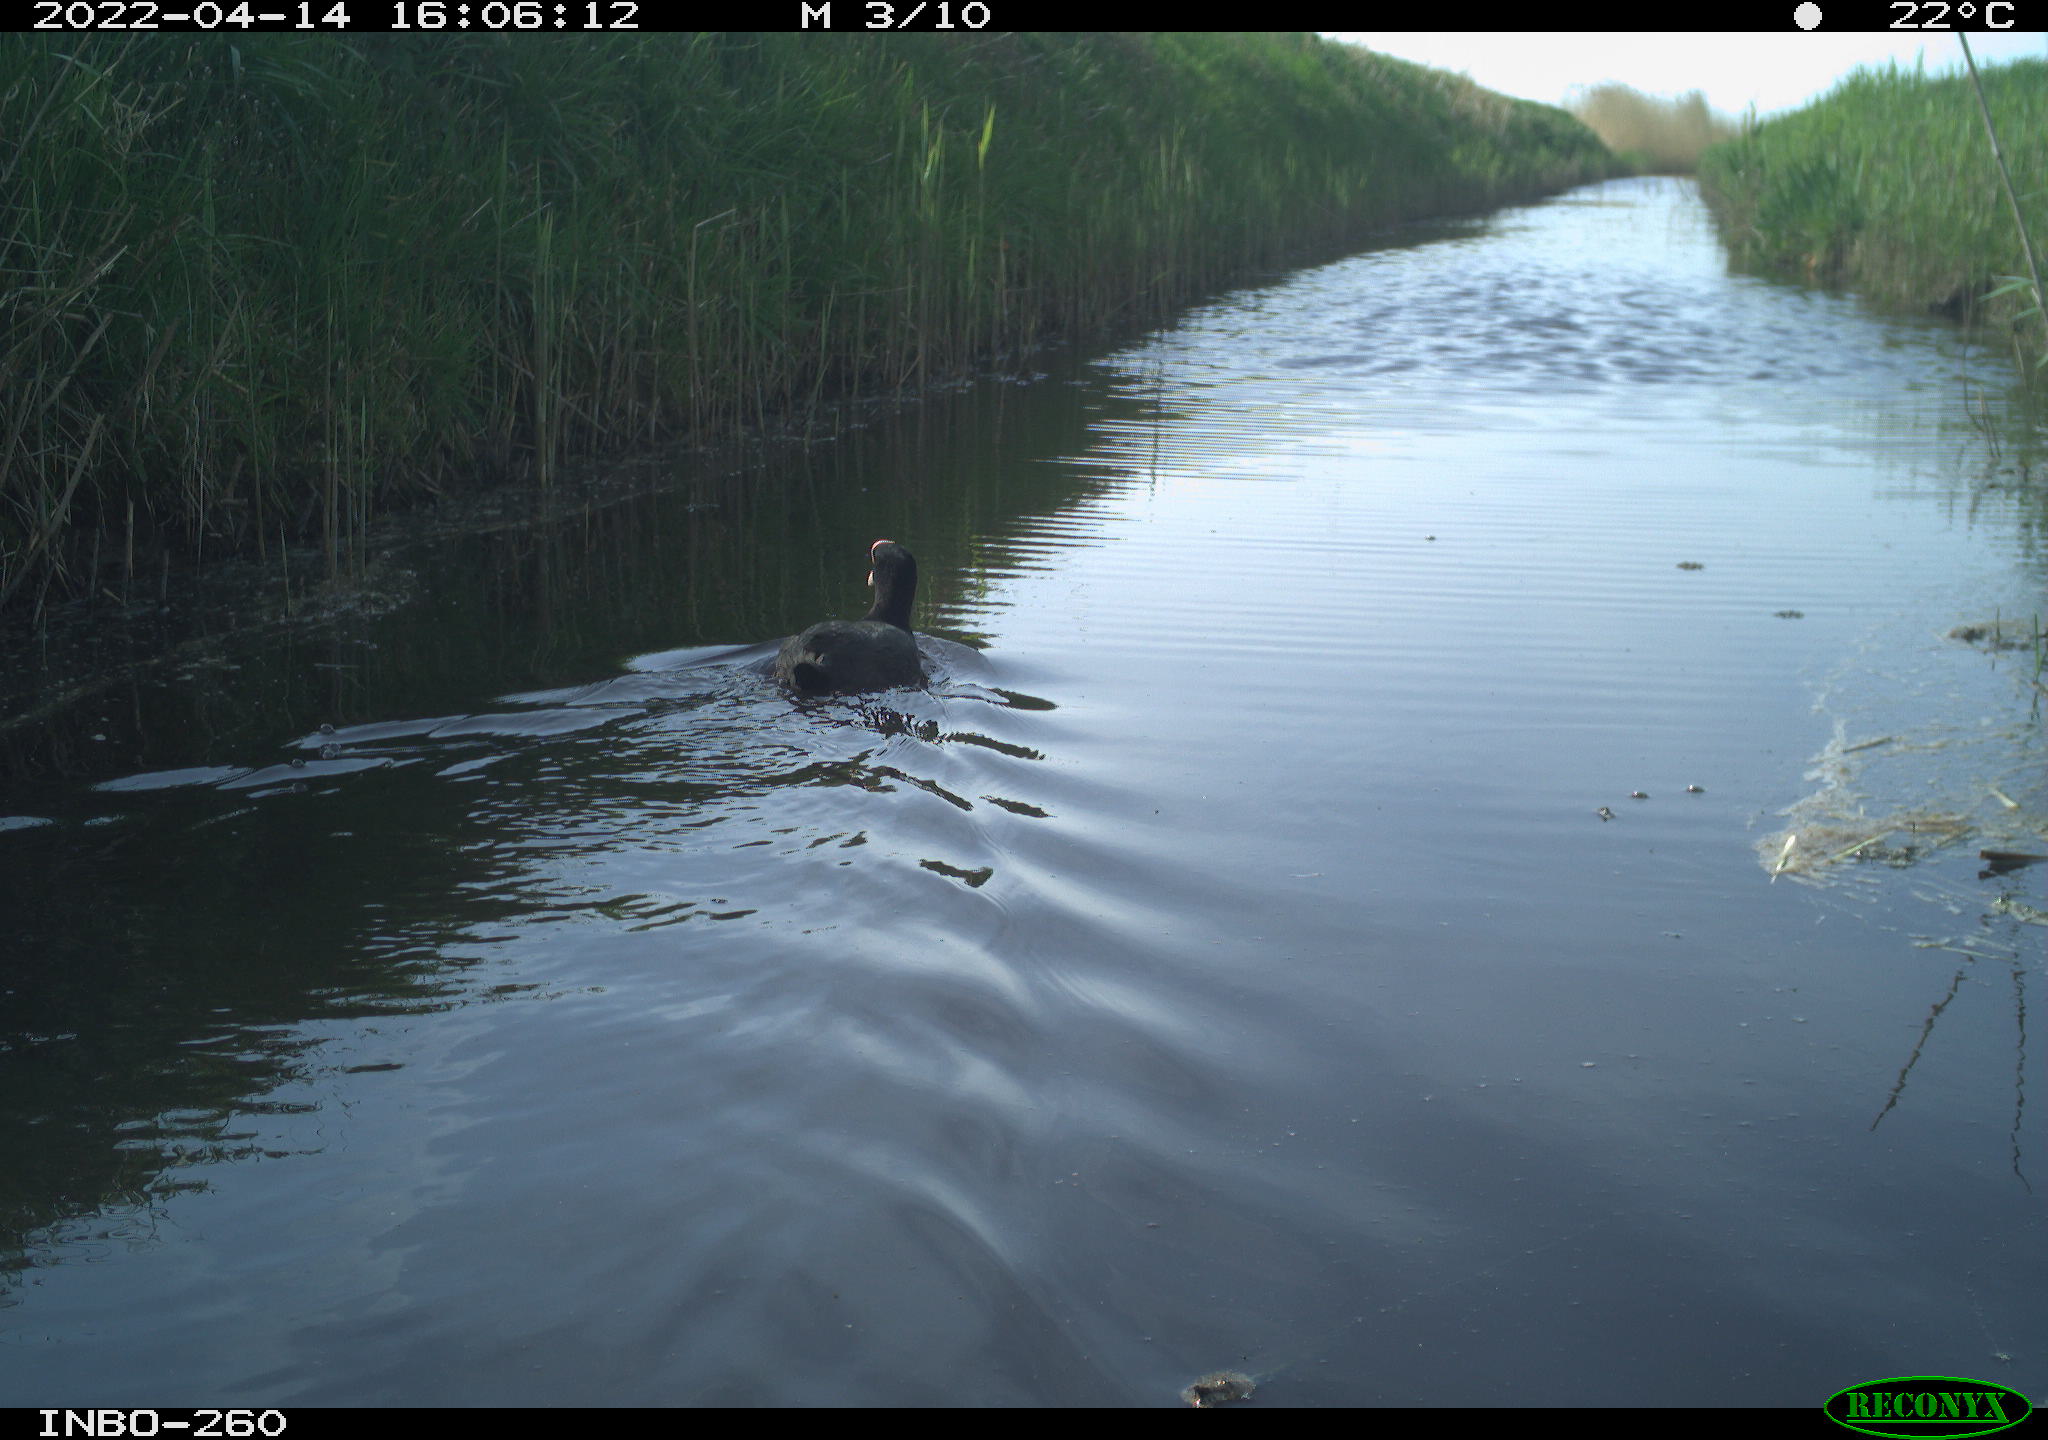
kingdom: Animalia
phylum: Chordata
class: Aves
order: Gruiformes
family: Rallidae
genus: Fulica
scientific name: Fulica atra
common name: Eurasian coot
